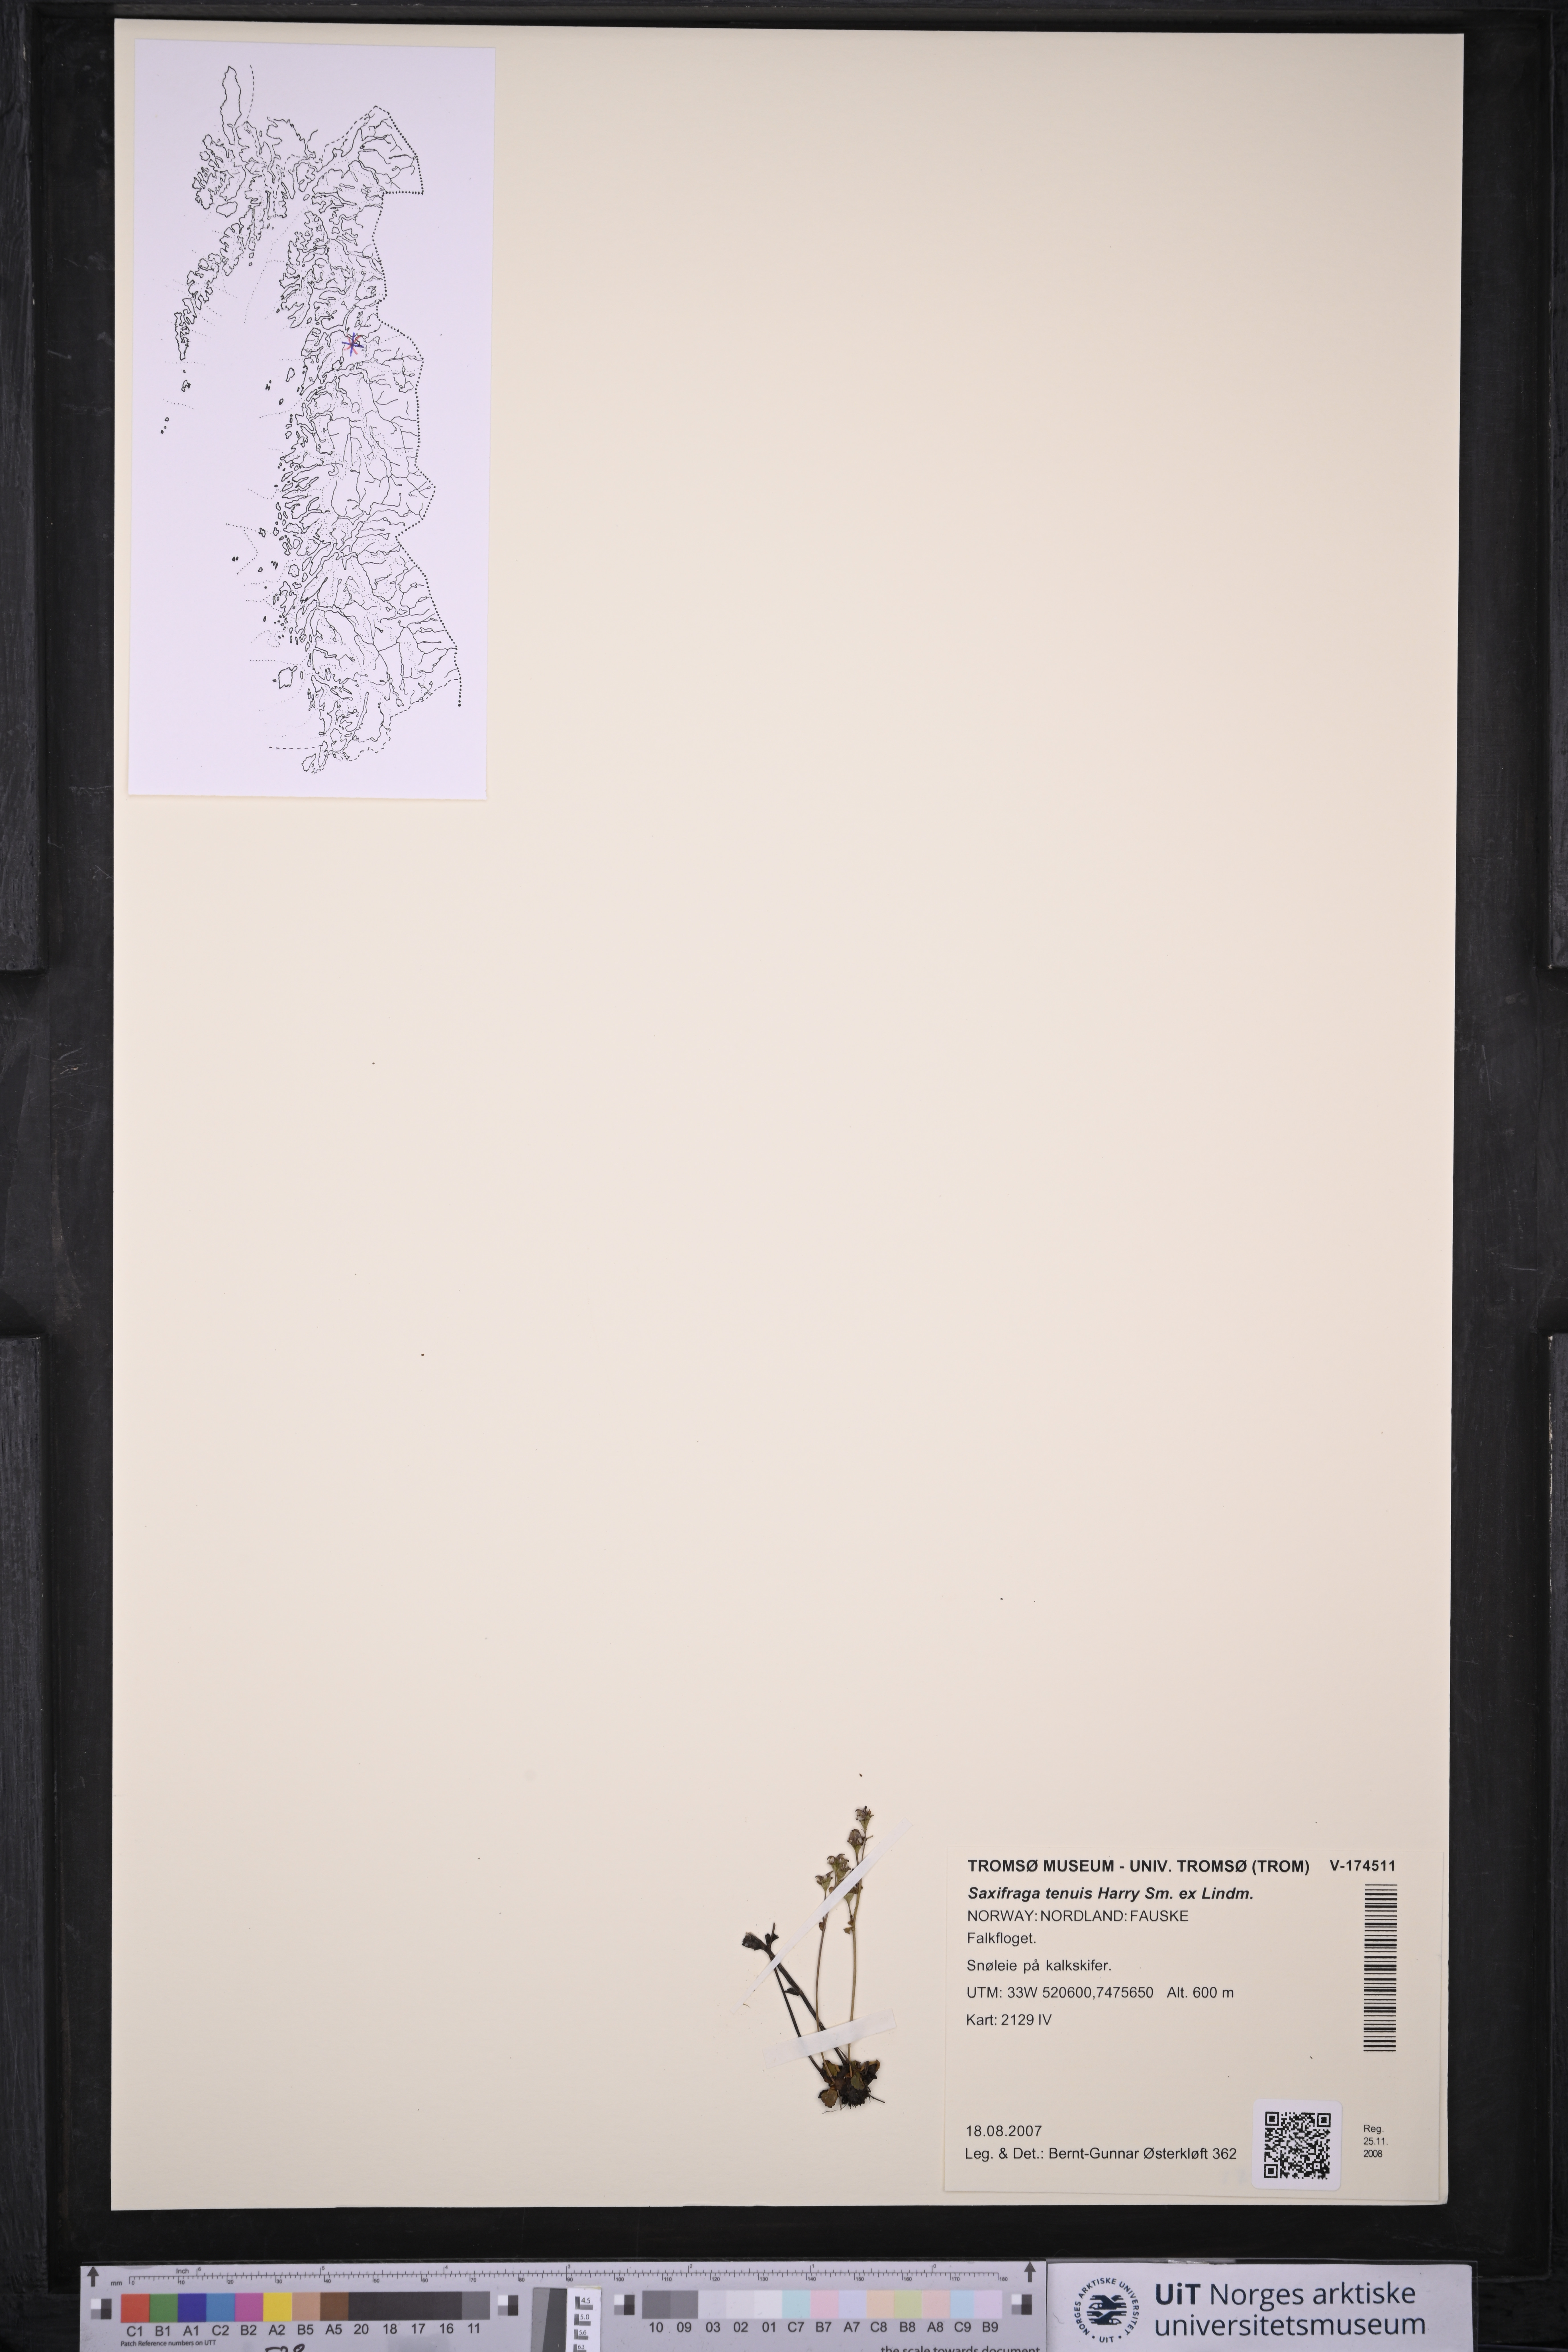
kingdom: Plantae
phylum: Tracheophyta
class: Magnoliopsida
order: Saxifragales
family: Saxifragaceae
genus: Micranthes
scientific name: Micranthes tenuis
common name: Ottertail pass saxifrage
